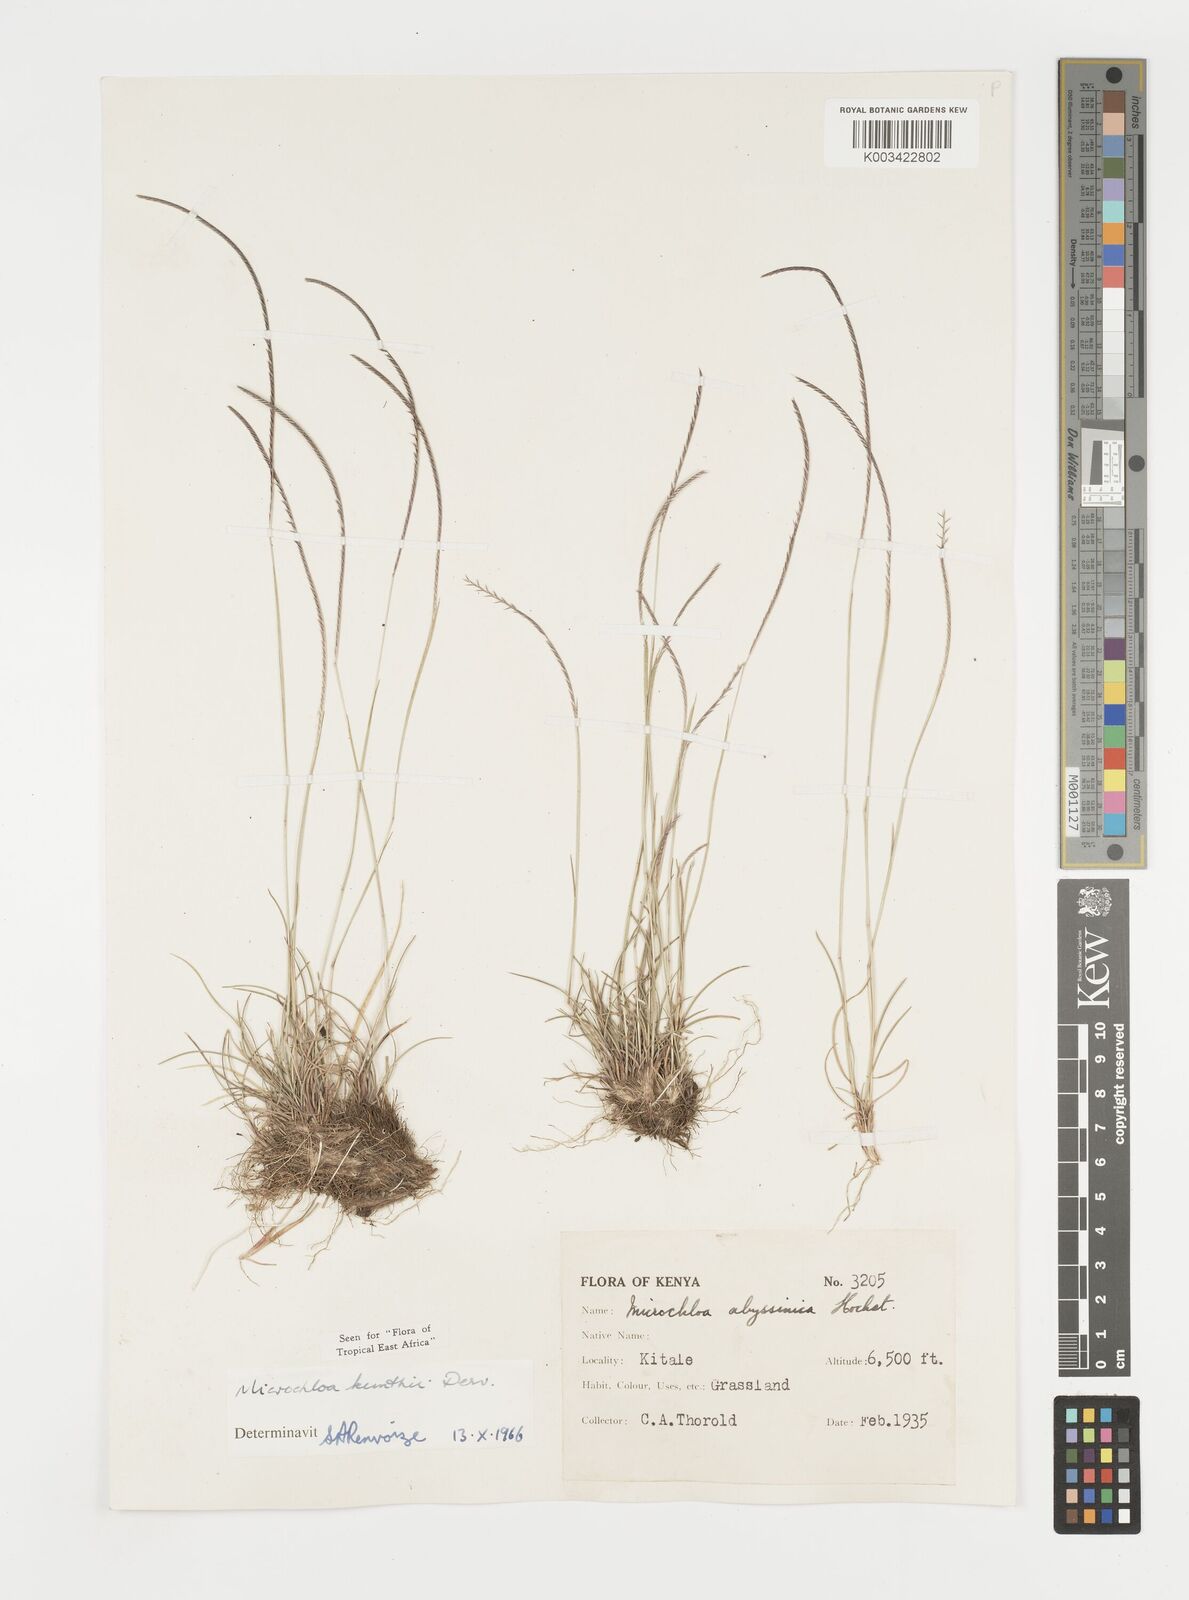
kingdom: Plantae
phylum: Tracheophyta
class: Liliopsida
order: Poales
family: Poaceae
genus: Microchloa
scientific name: Microchloa kunthii
